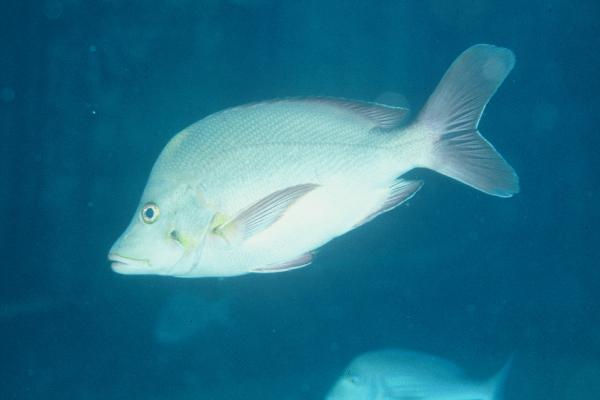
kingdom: Animalia
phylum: Chordata
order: Perciformes
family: Lutjanidae
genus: Lutjanus
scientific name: Lutjanus gibbus
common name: Humpback snapper
